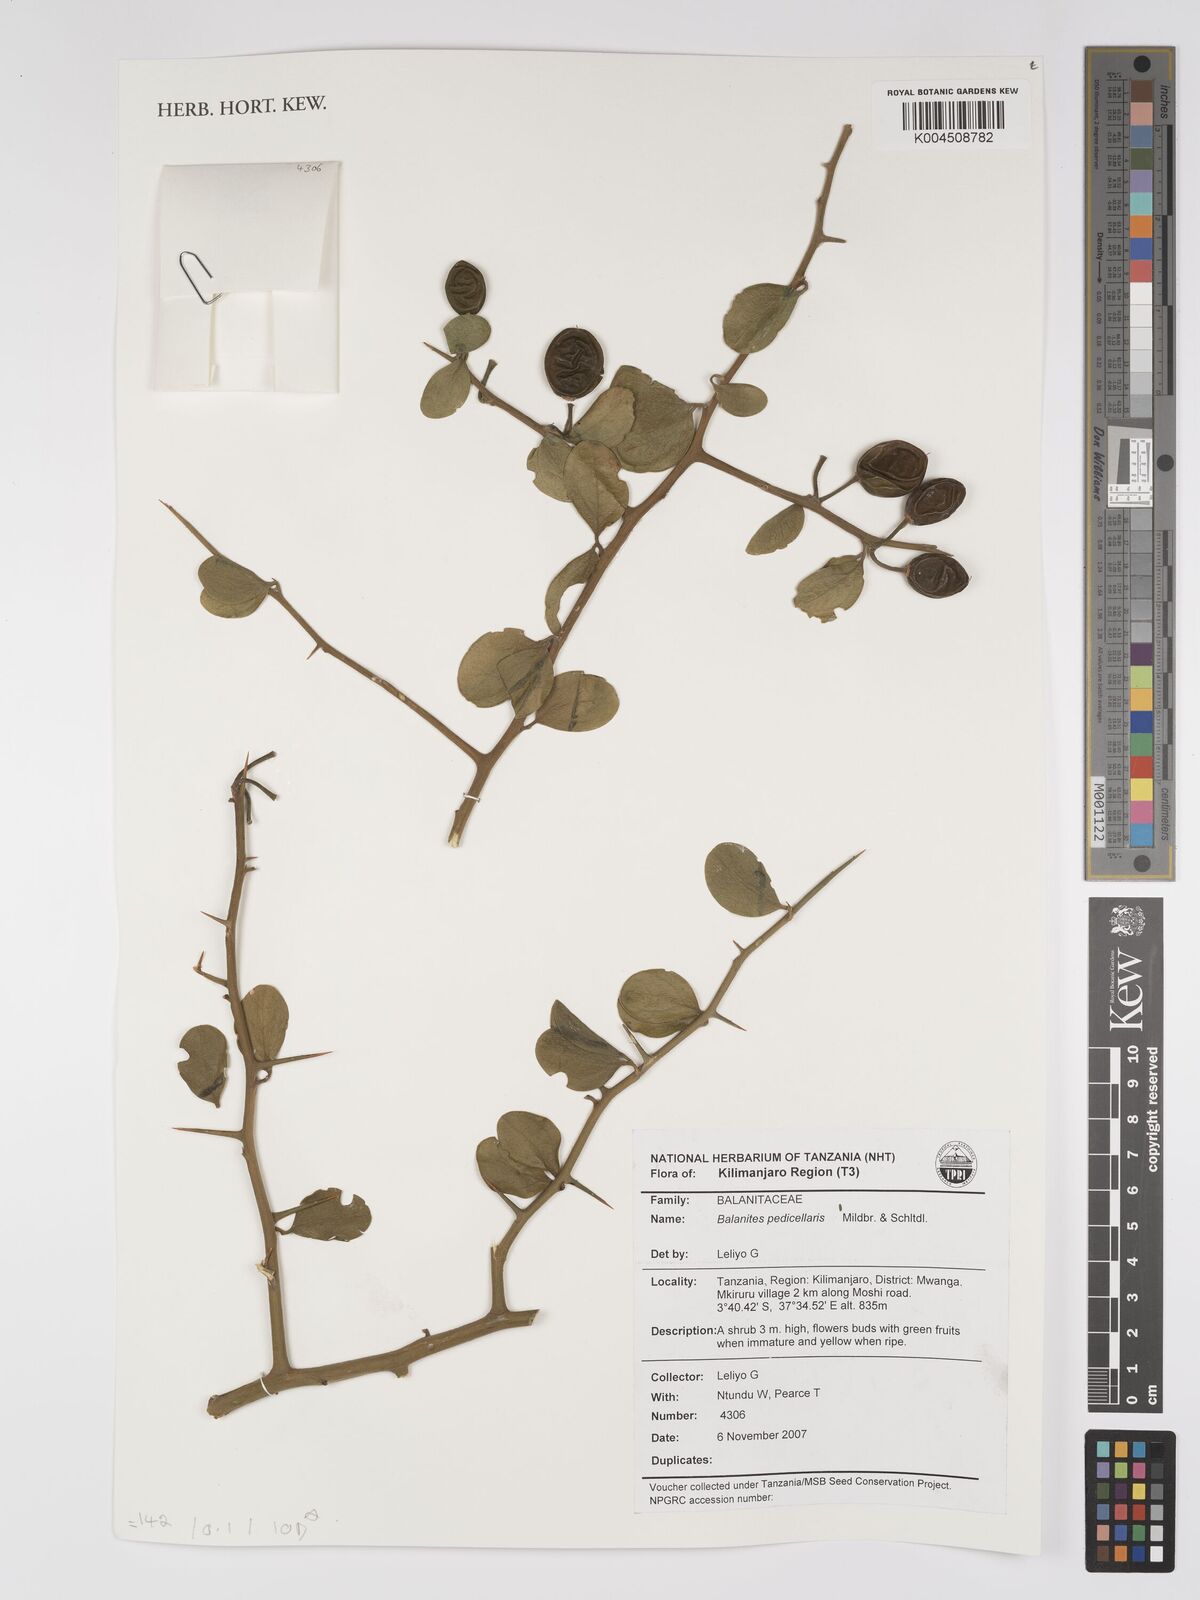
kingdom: Plantae
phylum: Tracheophyta
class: Magnoliopsida
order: Zygophyllales
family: Zygophyllaceae
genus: Balanites
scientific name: Balanites pedicellaris
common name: Small green-thorn
